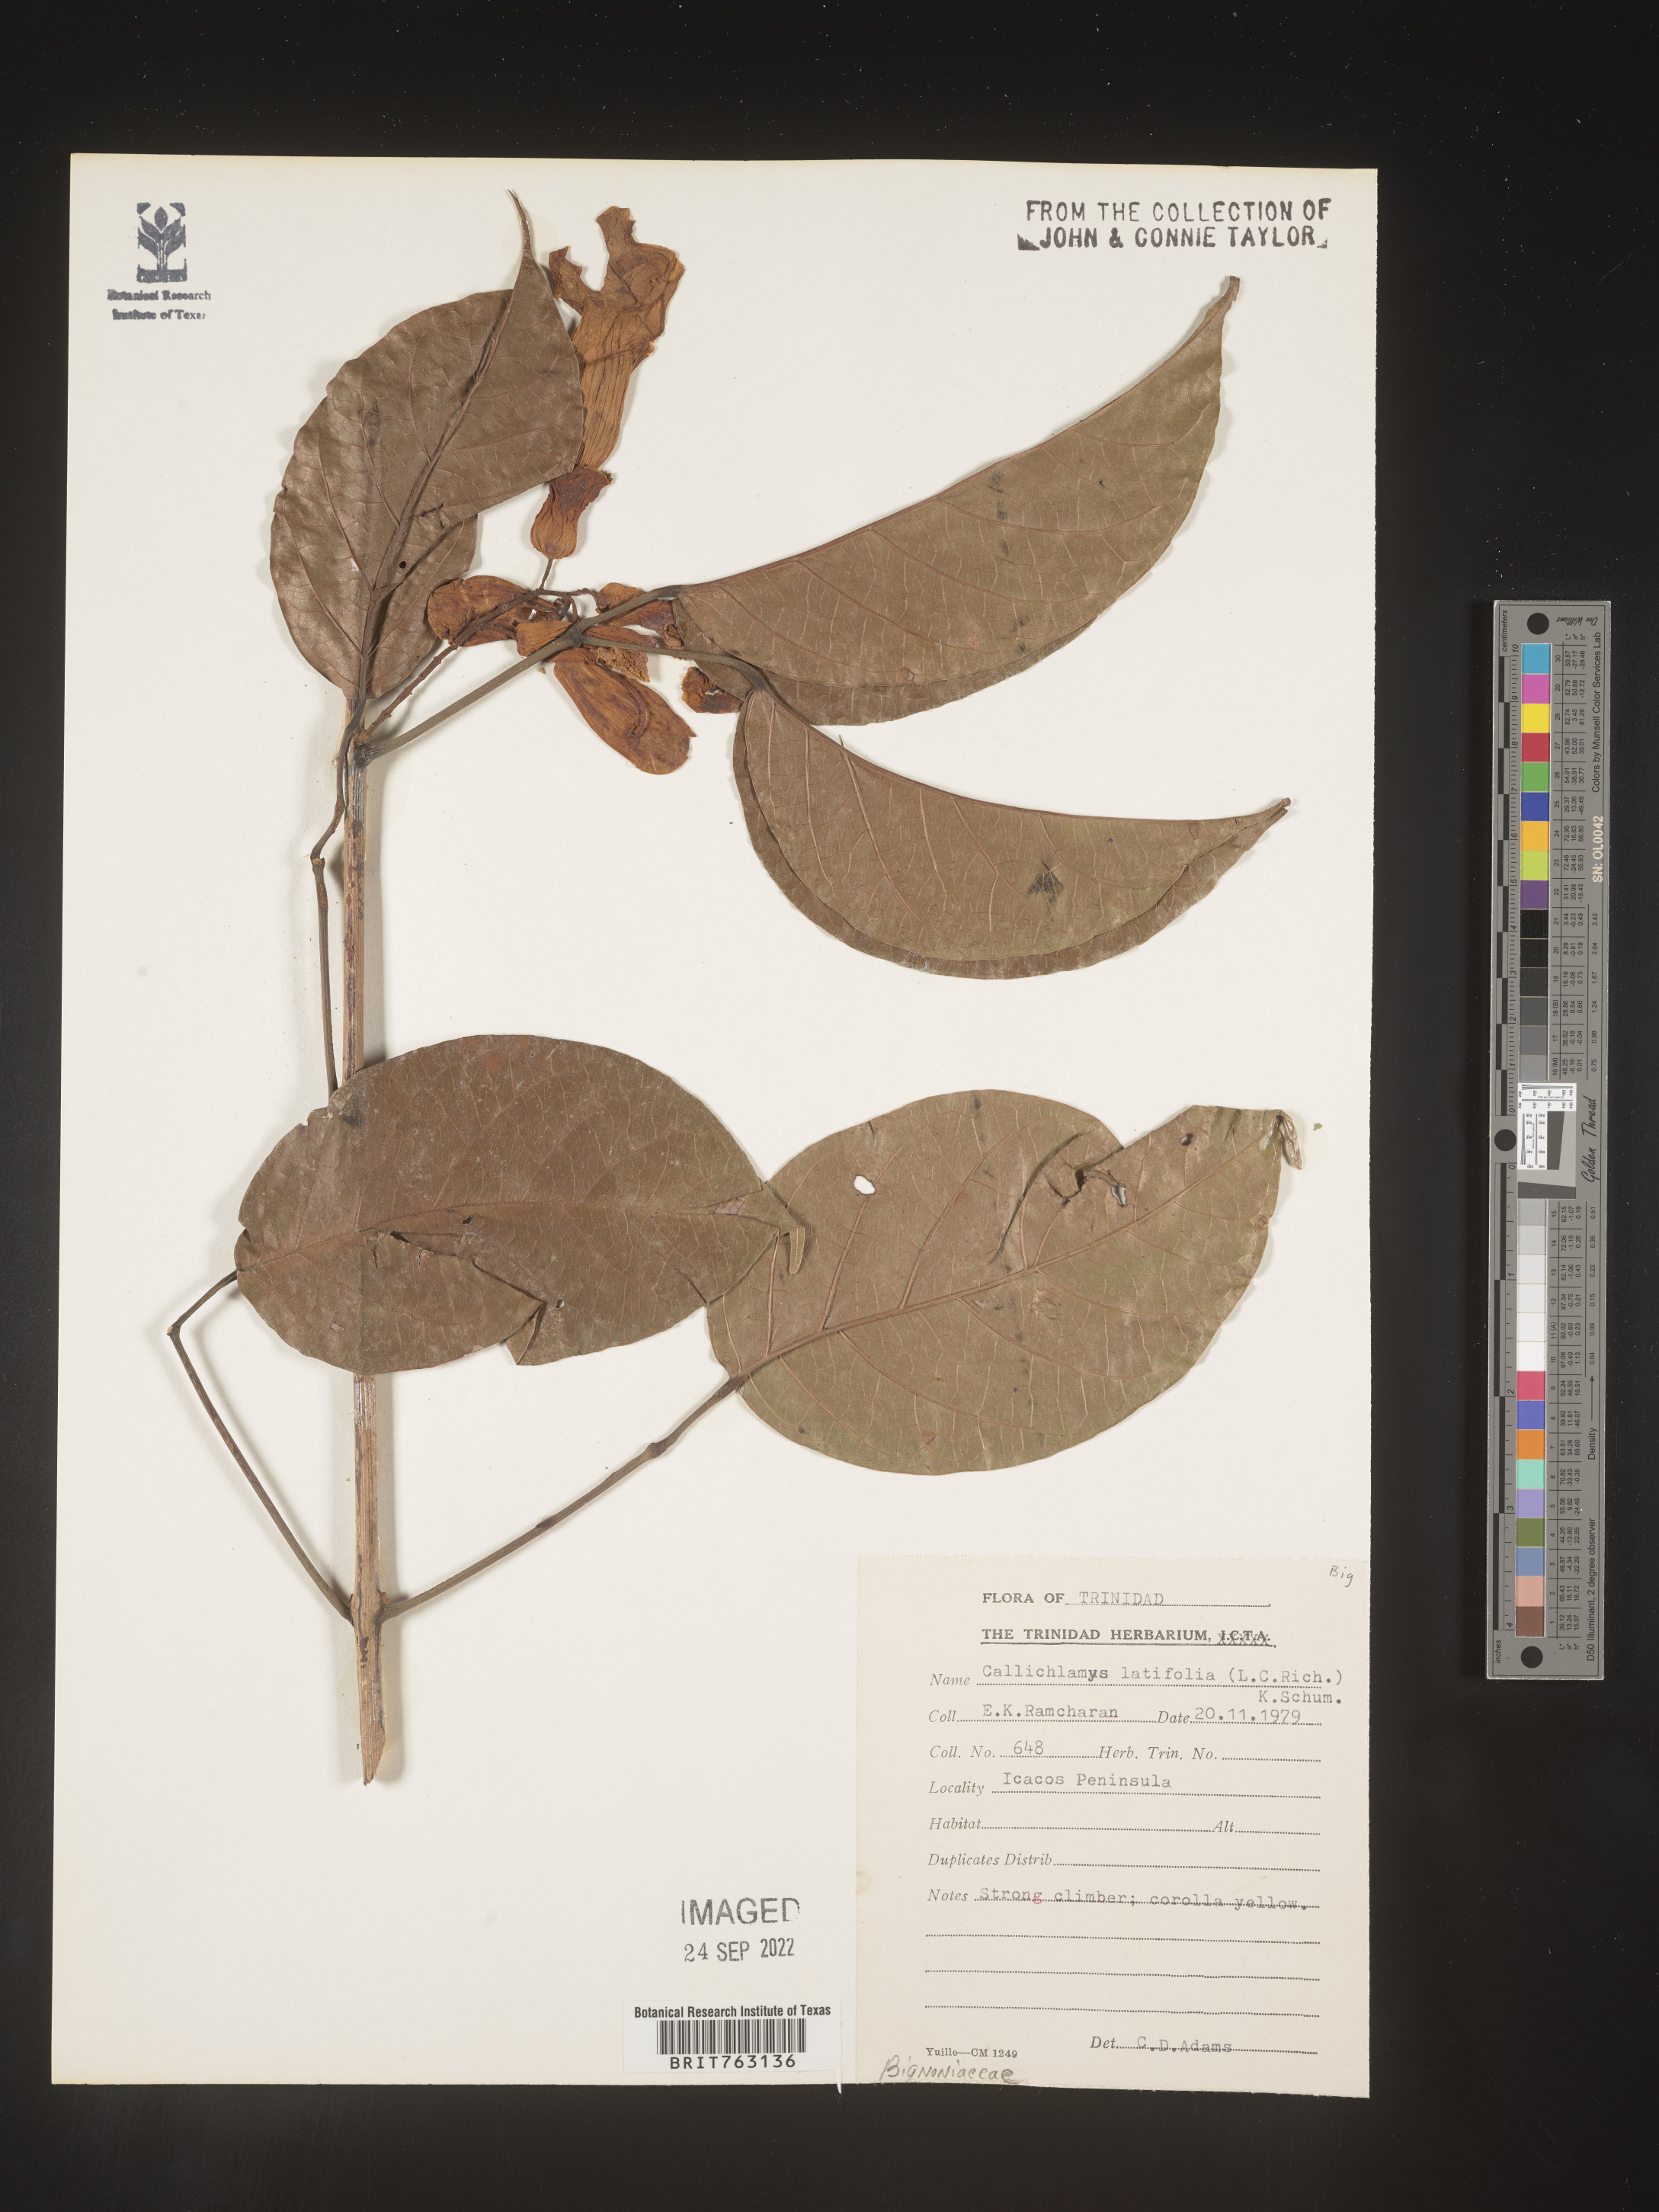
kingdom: Plantae
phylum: Tracheophyta
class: Magnoliopsida
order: Lamiales
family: Bignoniaceae
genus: Callichlamys
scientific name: Callichlamys
